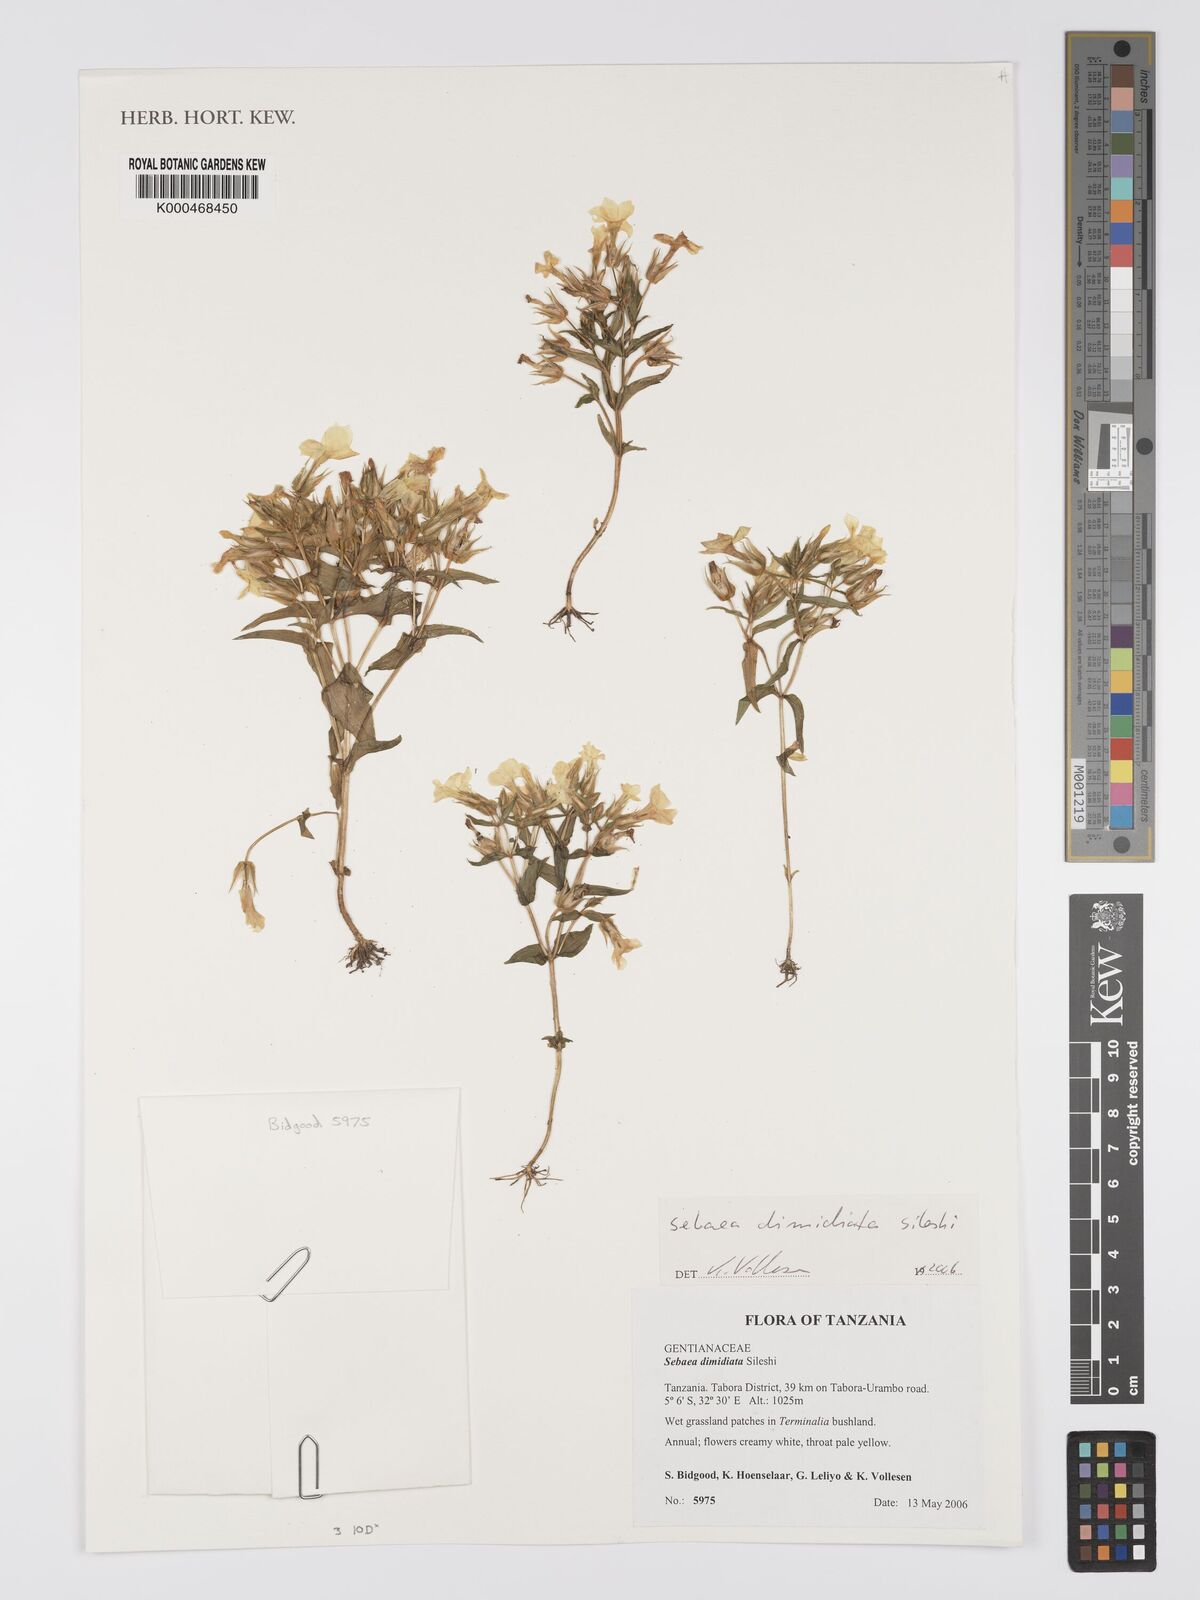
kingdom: Plantae
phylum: Tracheophyta
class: Magnoliopsida
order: Gentianales
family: Gentianaceae
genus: Exochaenium
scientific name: Exochaenium dimidiatum
